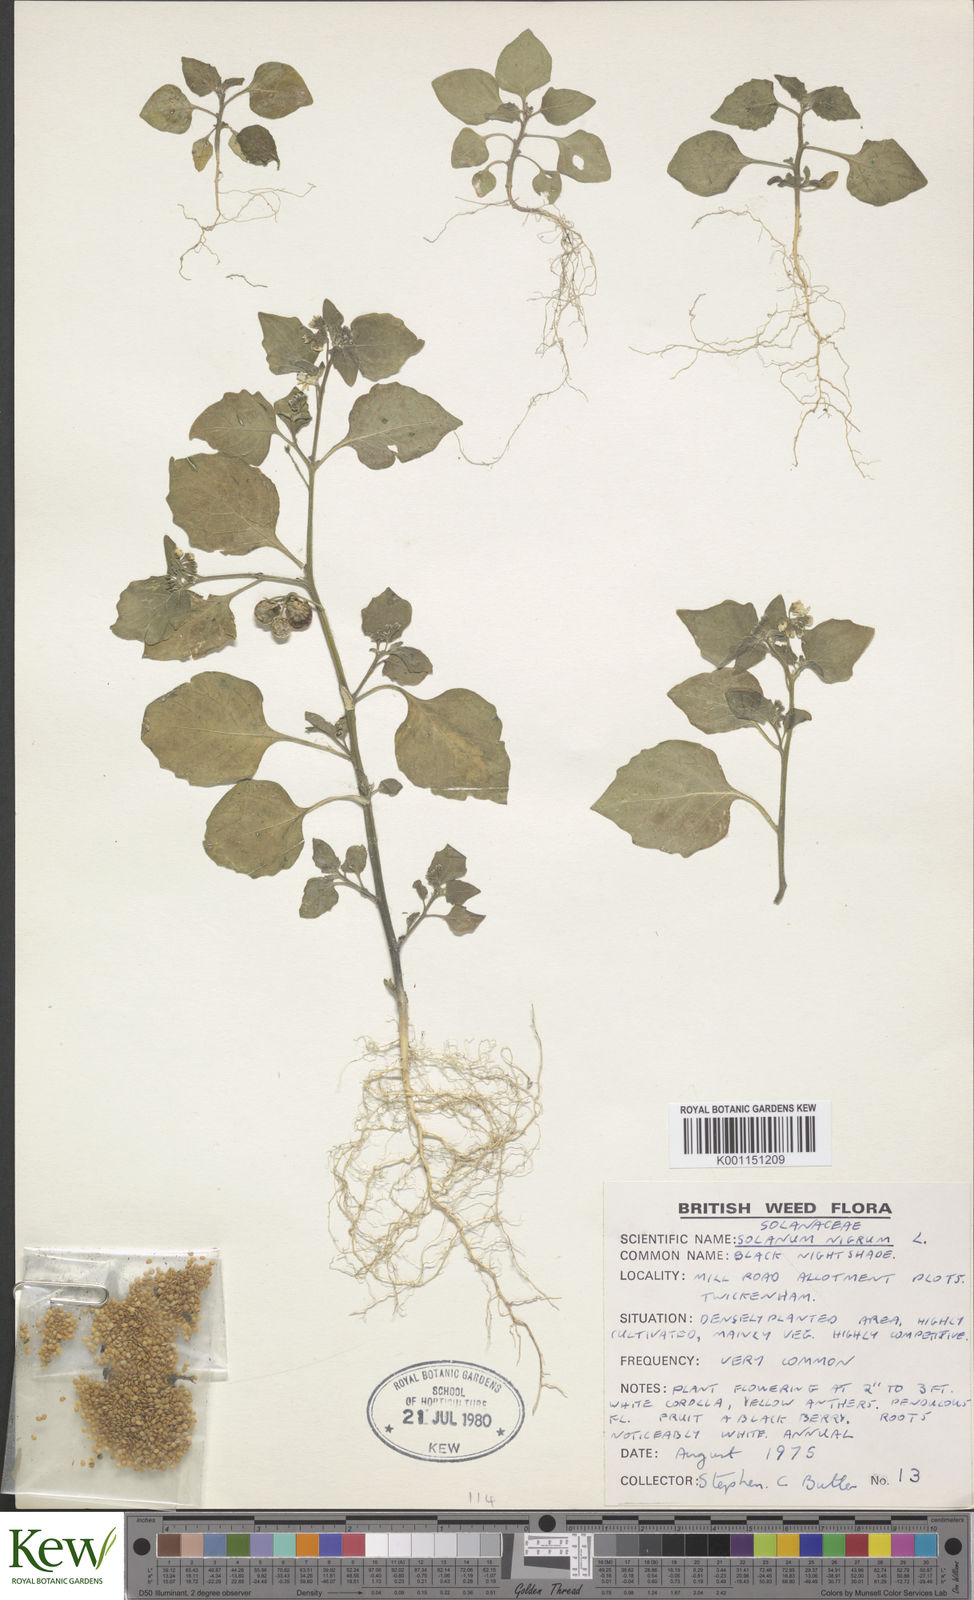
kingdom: Plantae
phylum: Tracheophyta
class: Magnoliopsida
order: Solanales
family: Solanaceae
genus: Solanum
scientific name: Solanum nigrum
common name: Black nightshade
